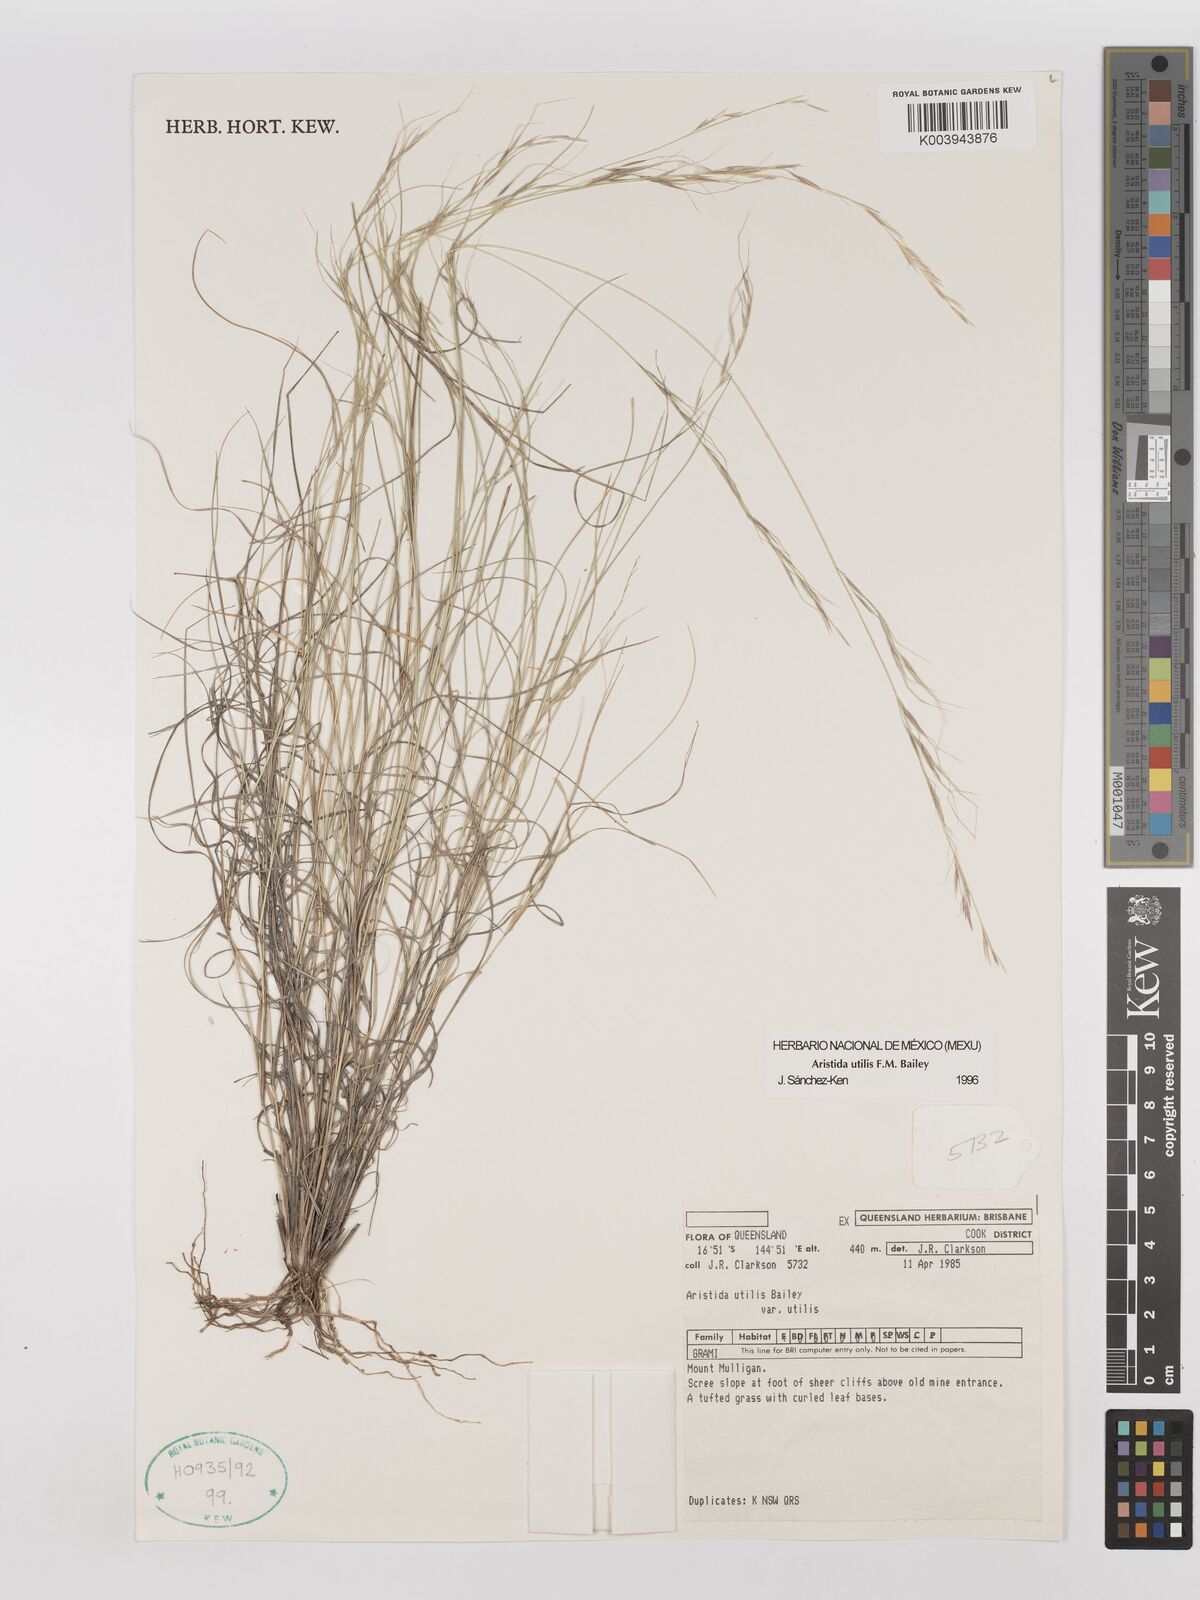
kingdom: Plantae
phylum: Tracheophyta
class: Liliopsida
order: Poales
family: Poaceae
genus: Aristida
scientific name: Aristida utilis
